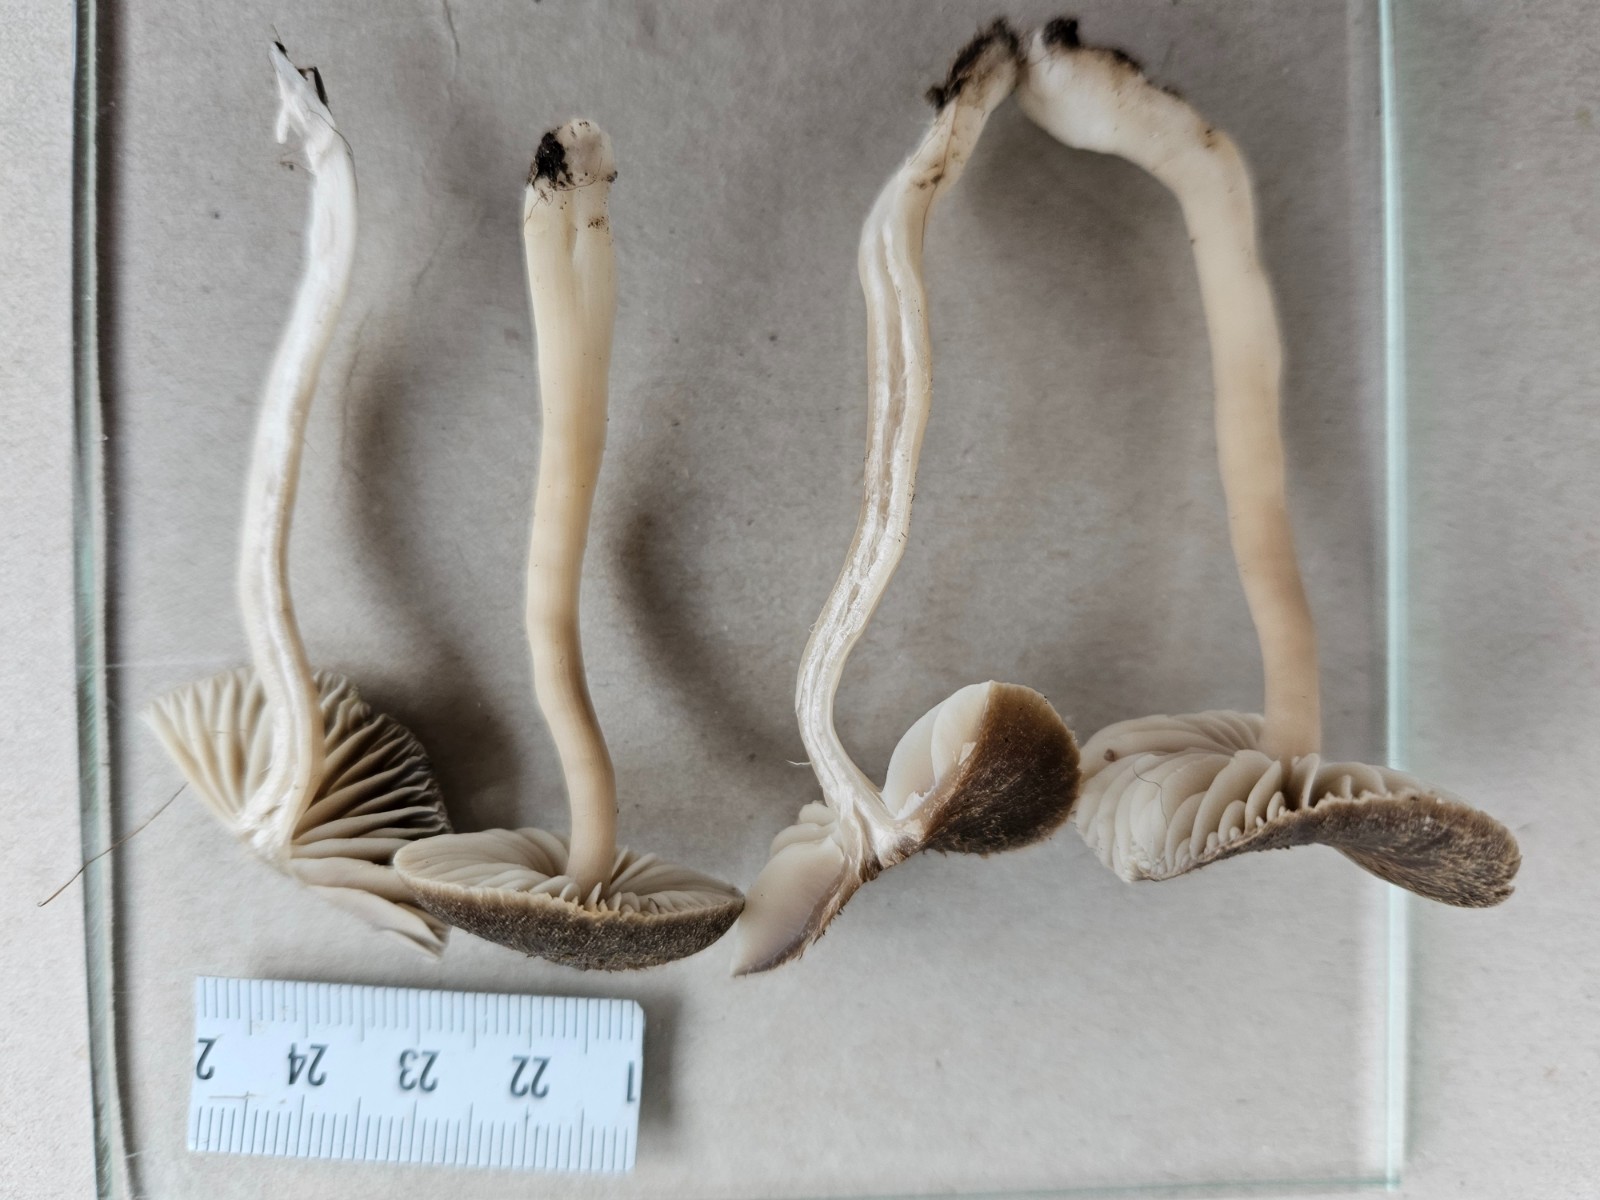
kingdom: Fungi
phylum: Basidiomycota
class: Agaricomycetes
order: Agaricales
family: Hygrophoraceae
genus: Neohygrocybe
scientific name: Neohygrocybe nitrata
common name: stinkende vokshat
